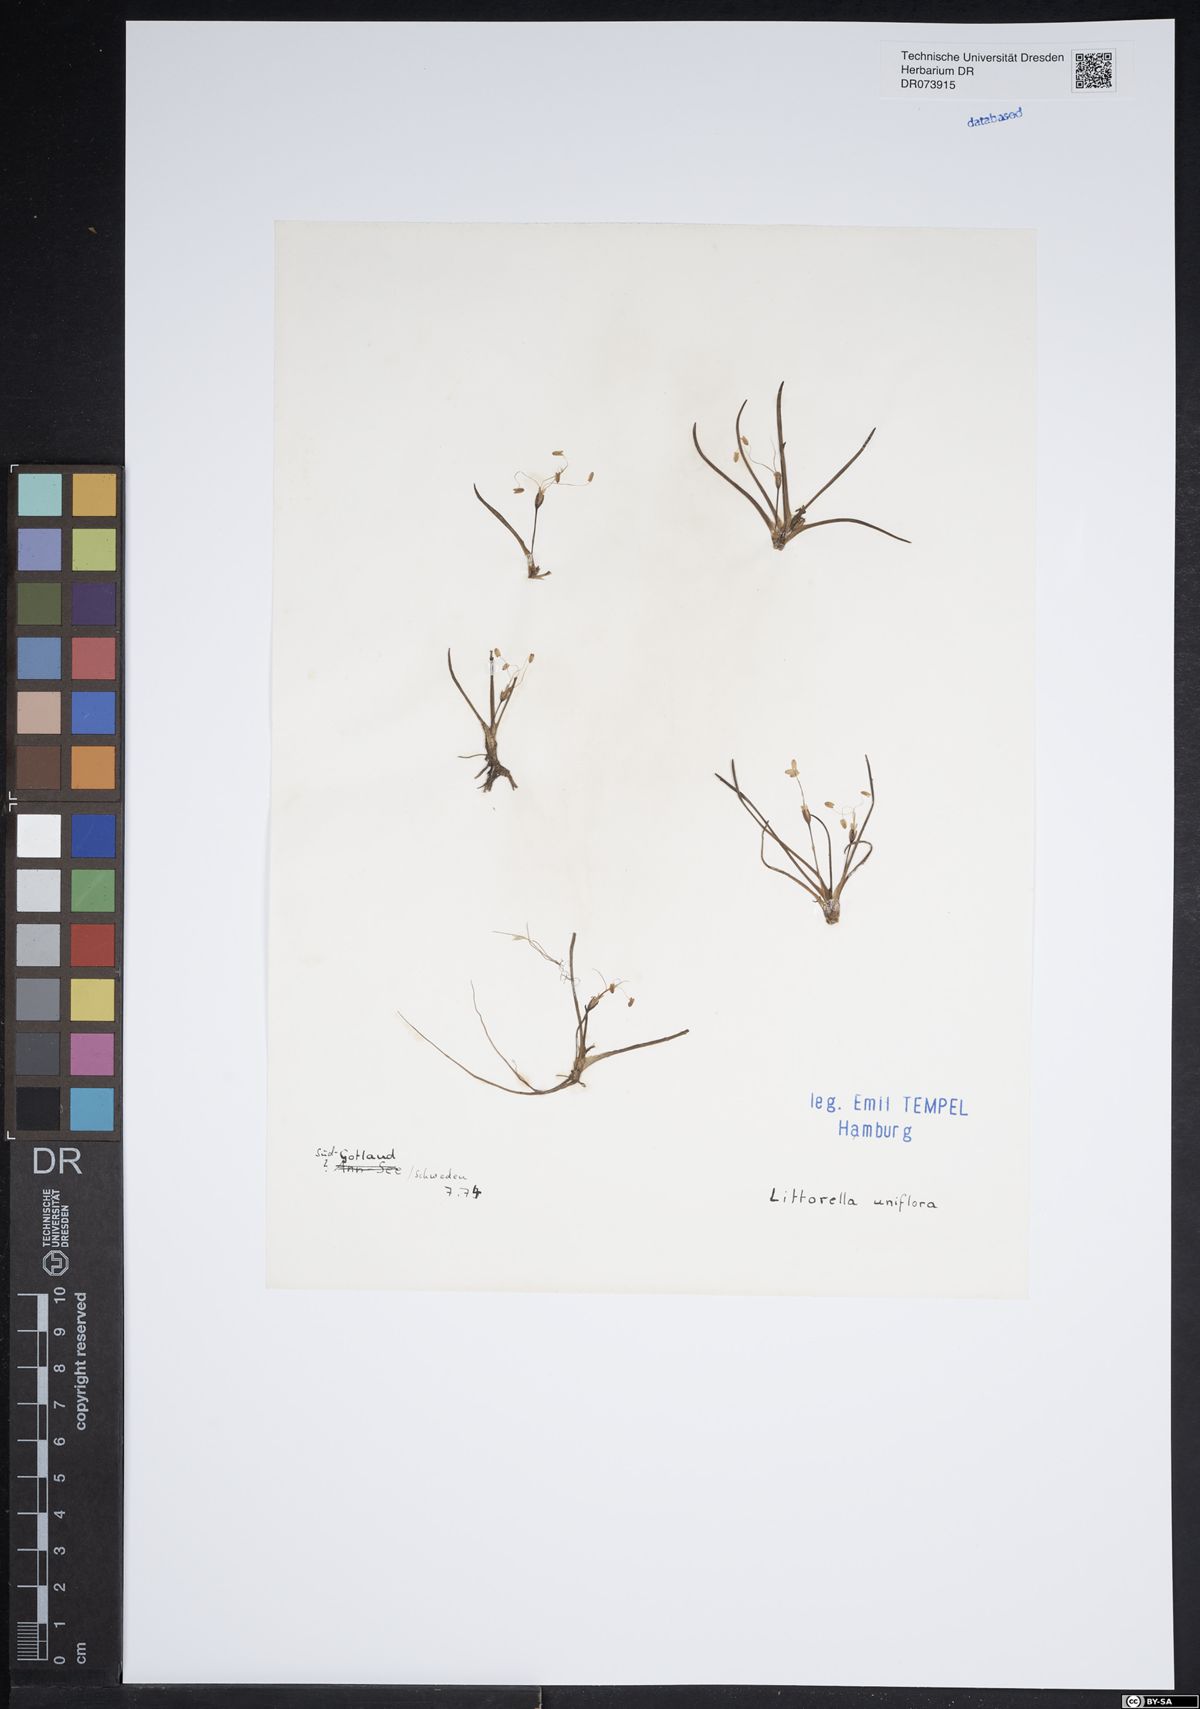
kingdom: Plantae
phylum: Tracheophyta
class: Magnoliopsida
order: Lamiales
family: Plantaginaceae
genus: Littorella
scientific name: Littorella uniflora
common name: Shoreweed
